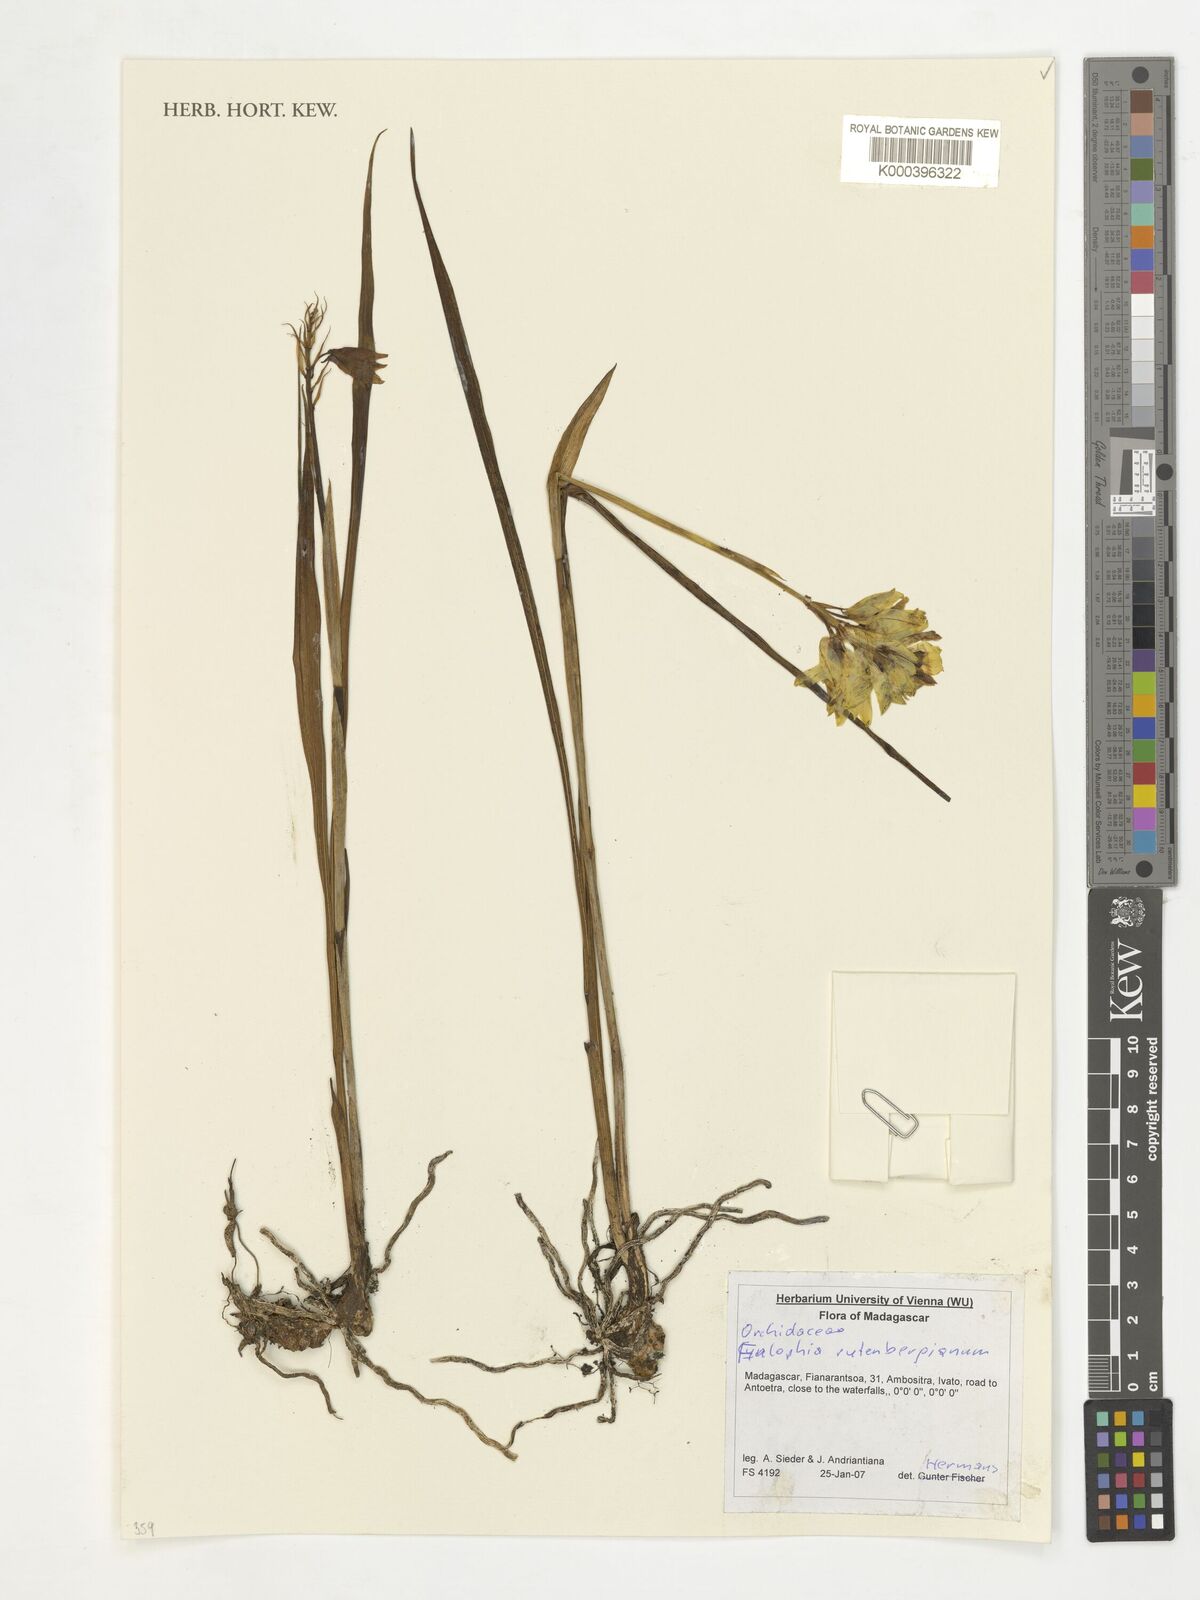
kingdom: Plantae
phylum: Tracheophyta
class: Liliopsida
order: Asparagales
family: Orchidaceae
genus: Eulophia
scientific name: Eulophia rutenbergiana
